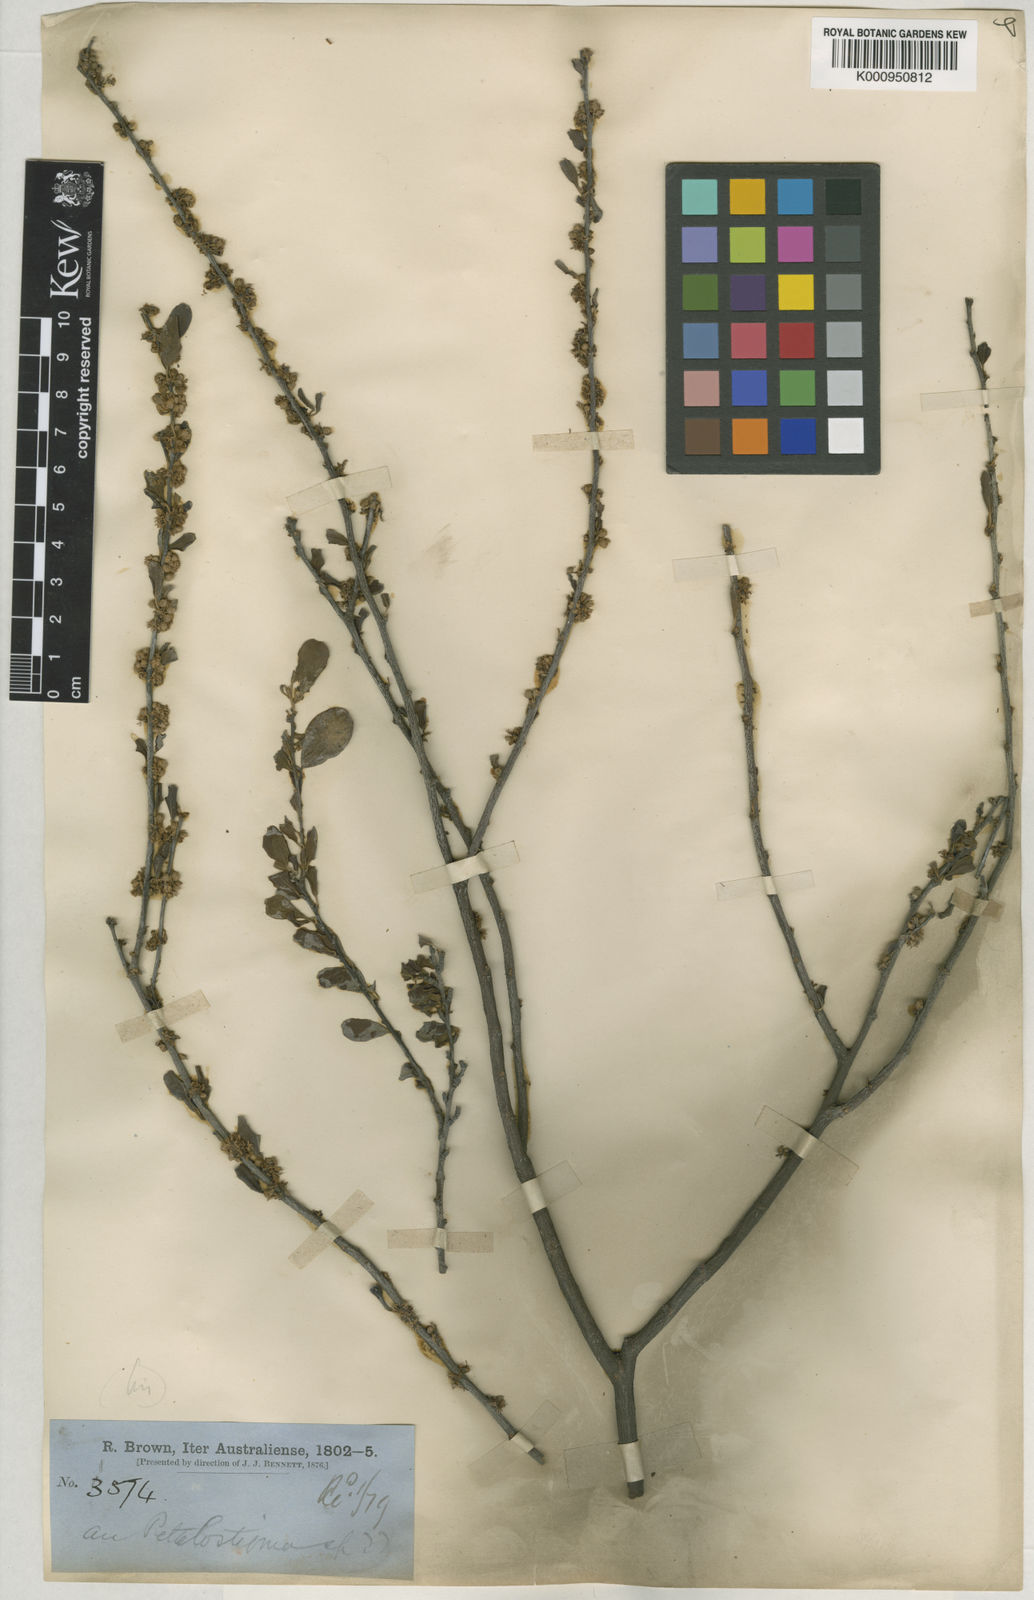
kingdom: Plantae
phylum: Tracheophyta
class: Magnoliopsida
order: Malpighiales
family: Picrodendraceae
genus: Petalostigma
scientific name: Petalostigma banksii
